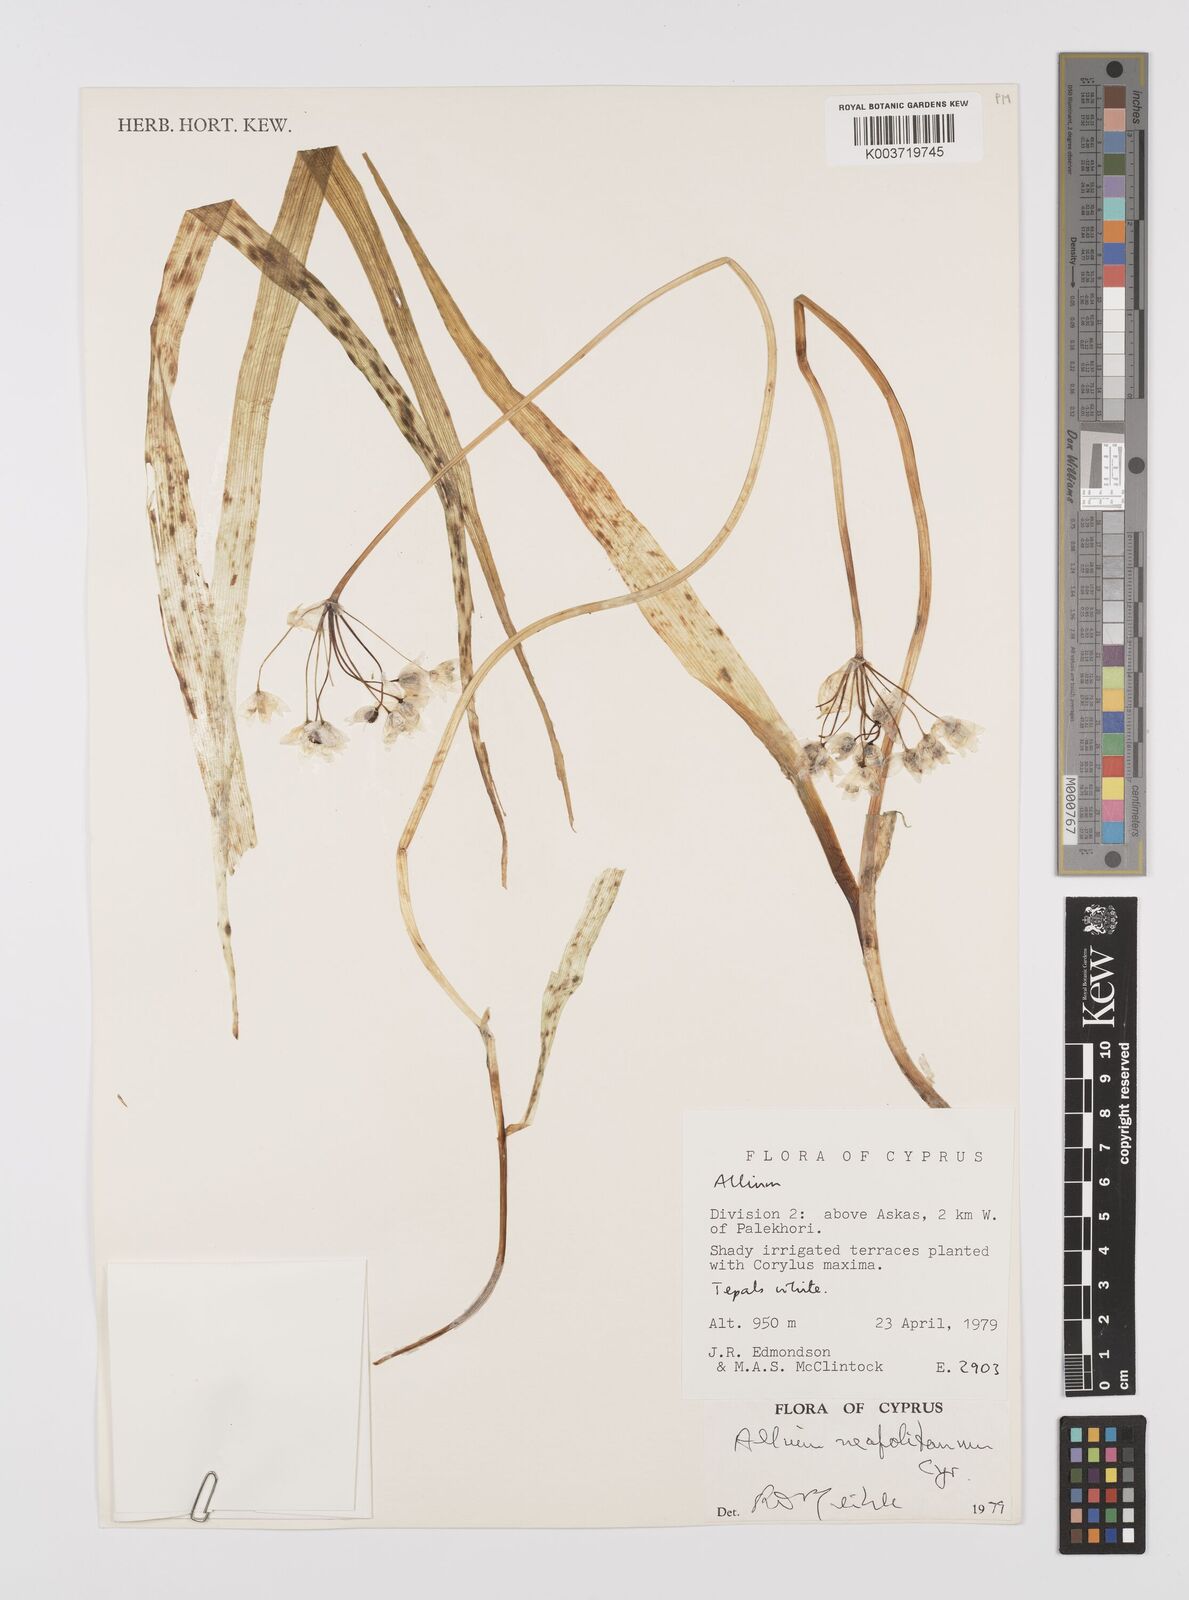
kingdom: Plantae
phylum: Tracheophyta
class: Liliopsida
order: Asparagales
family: Amaryllidaceae
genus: Allium
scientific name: Allium neapolitanum
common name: Neapolitan garlic
